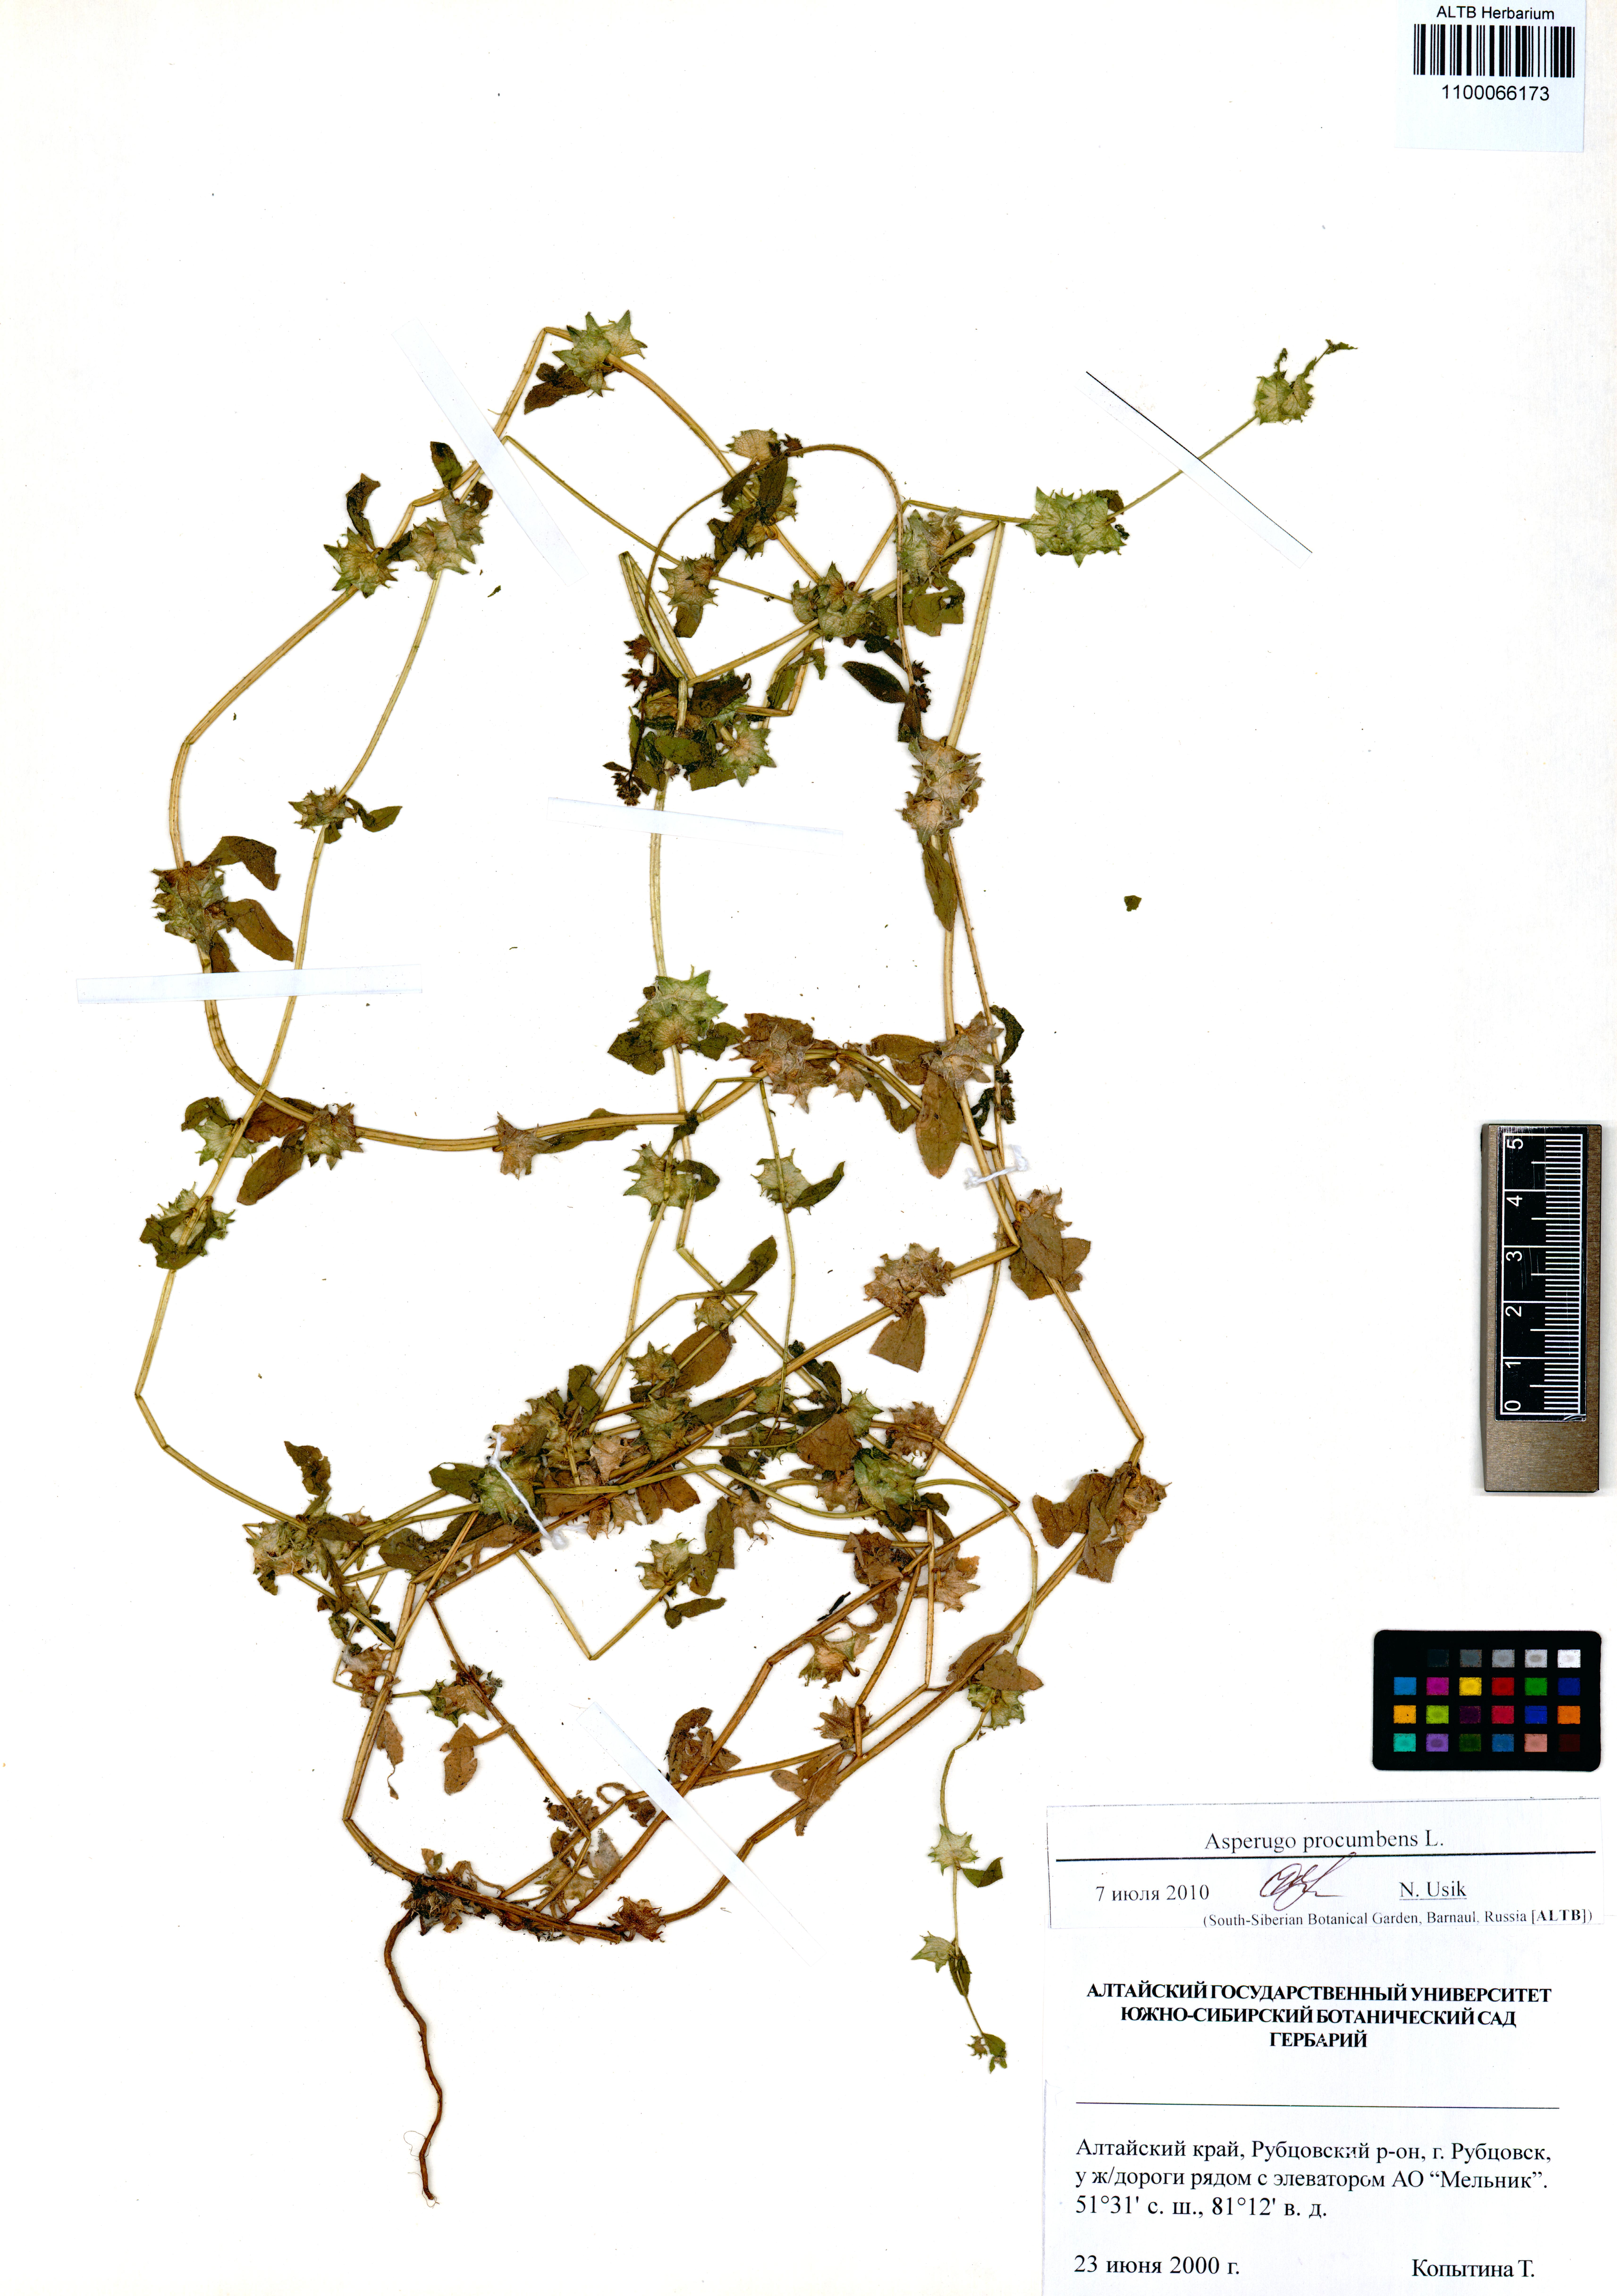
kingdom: Plantae
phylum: Tracheophyta
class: Magnoliopsida
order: Boraginales
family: Boraginaceae
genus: Asperugo
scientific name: Asperugo procumbens
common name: Madwort
